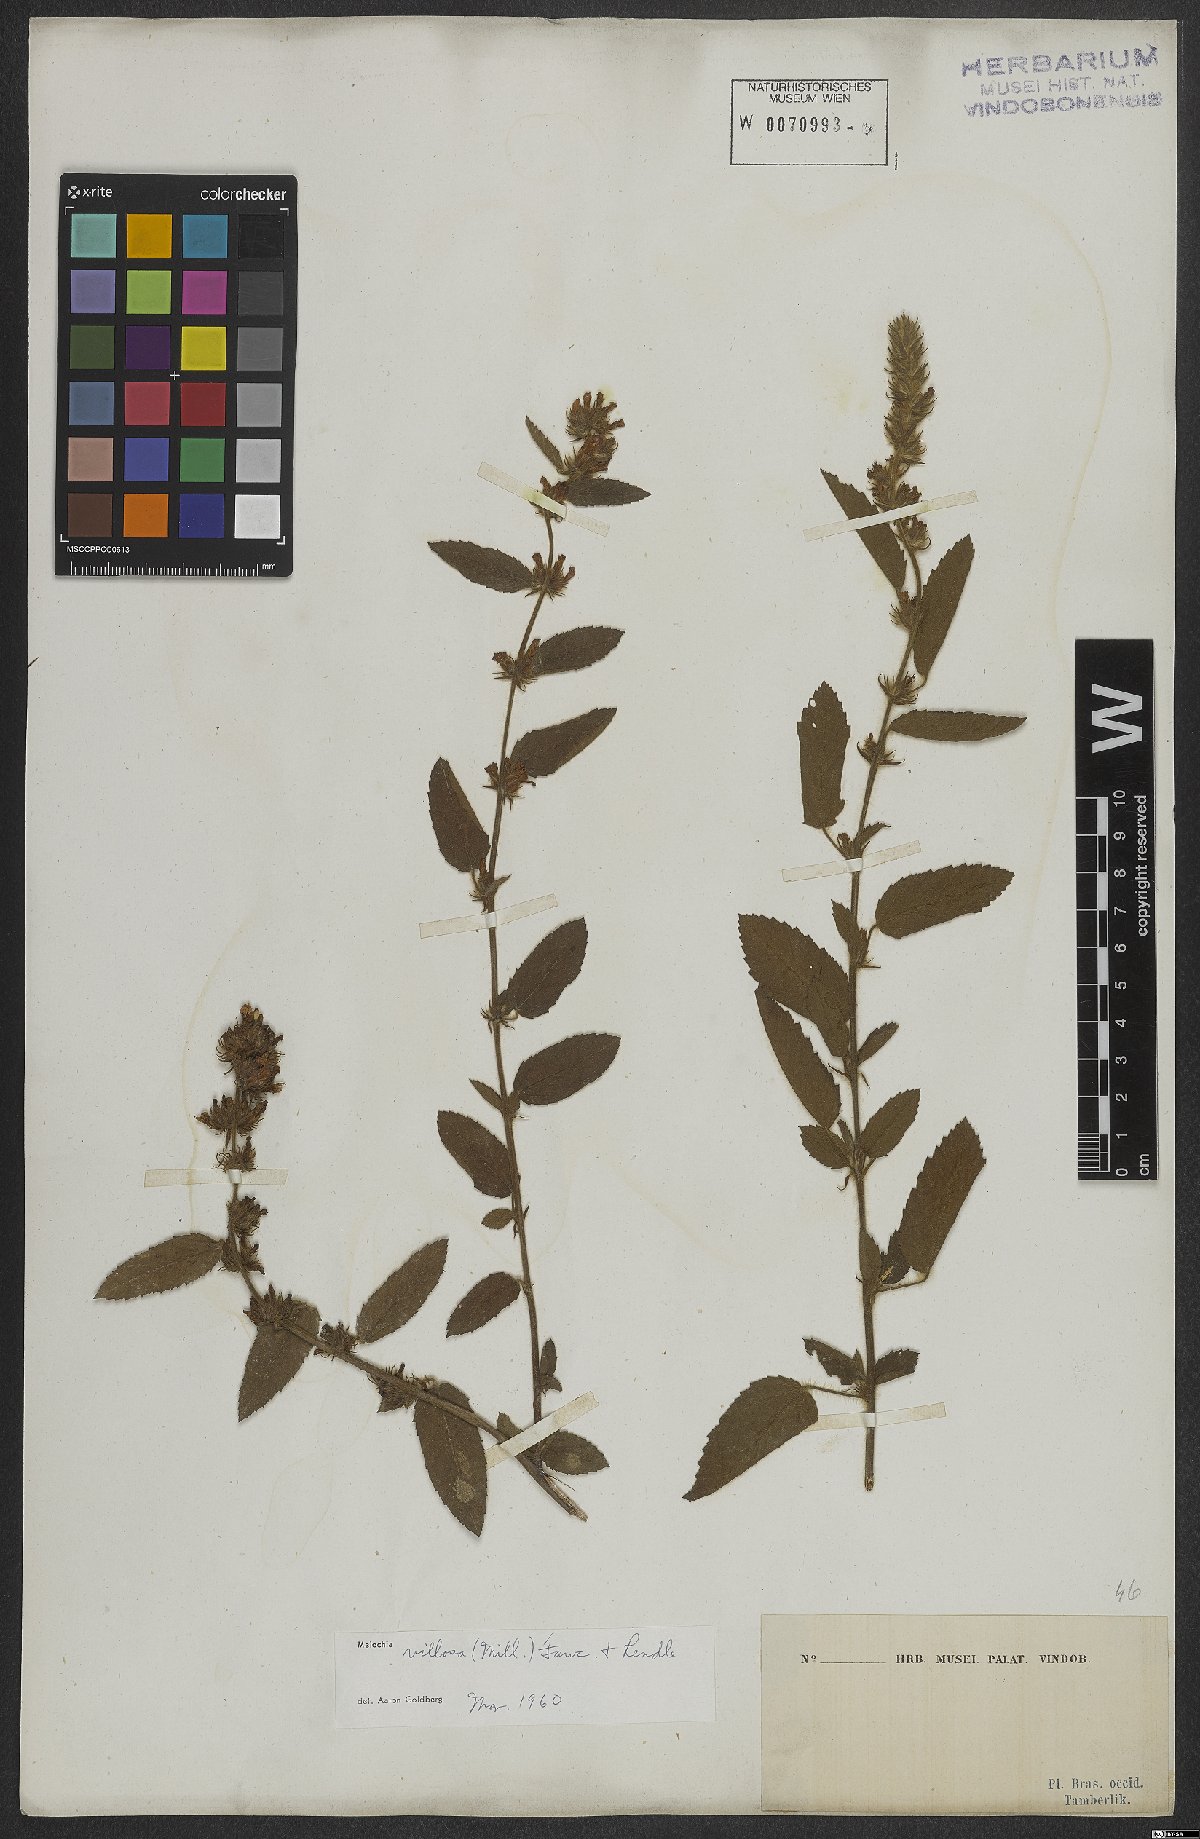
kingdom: Plantae
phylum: Tracheophyta
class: Magnoliopsida
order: Malvales
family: Malvaceae
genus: Melochia
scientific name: Melochia spicata
